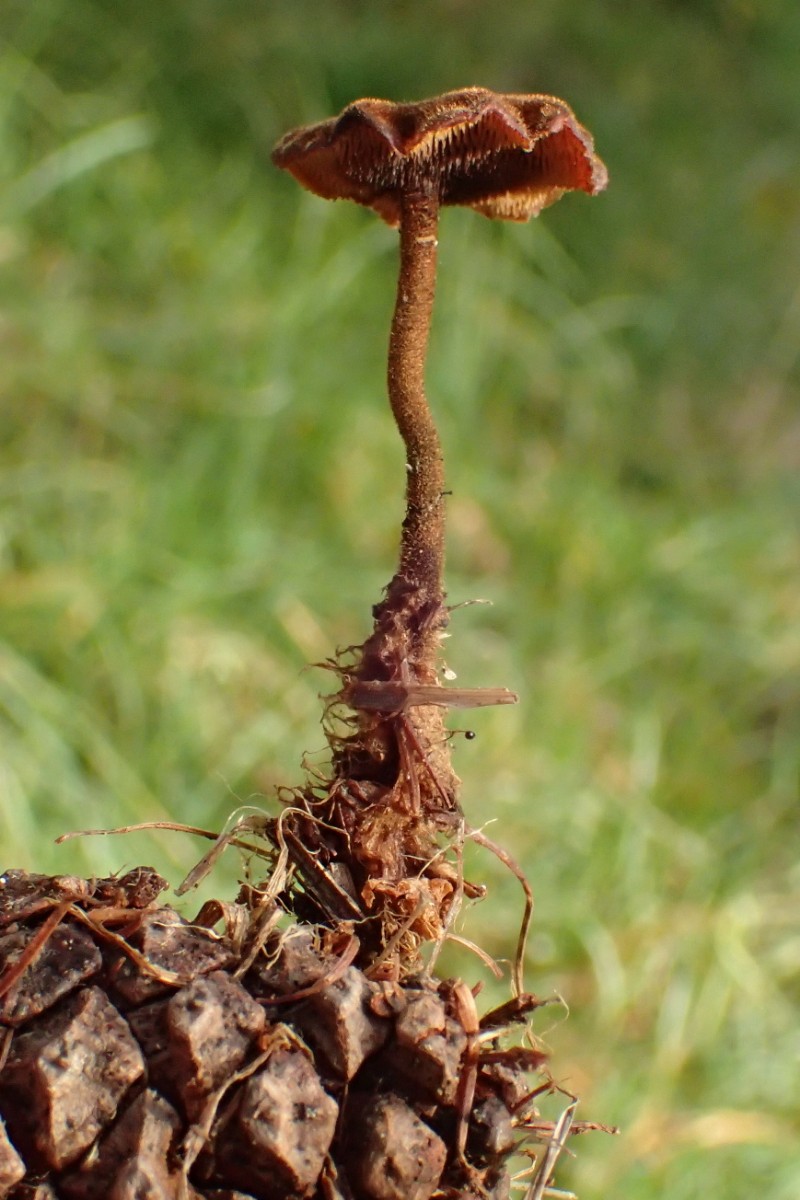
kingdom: Fungi
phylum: Basidiomycota
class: Agaricomycetes
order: Russulales
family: Auriscalpiaceae
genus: Auriscalpium
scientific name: Auriscalpium vulgare
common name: koglepigsvamp
